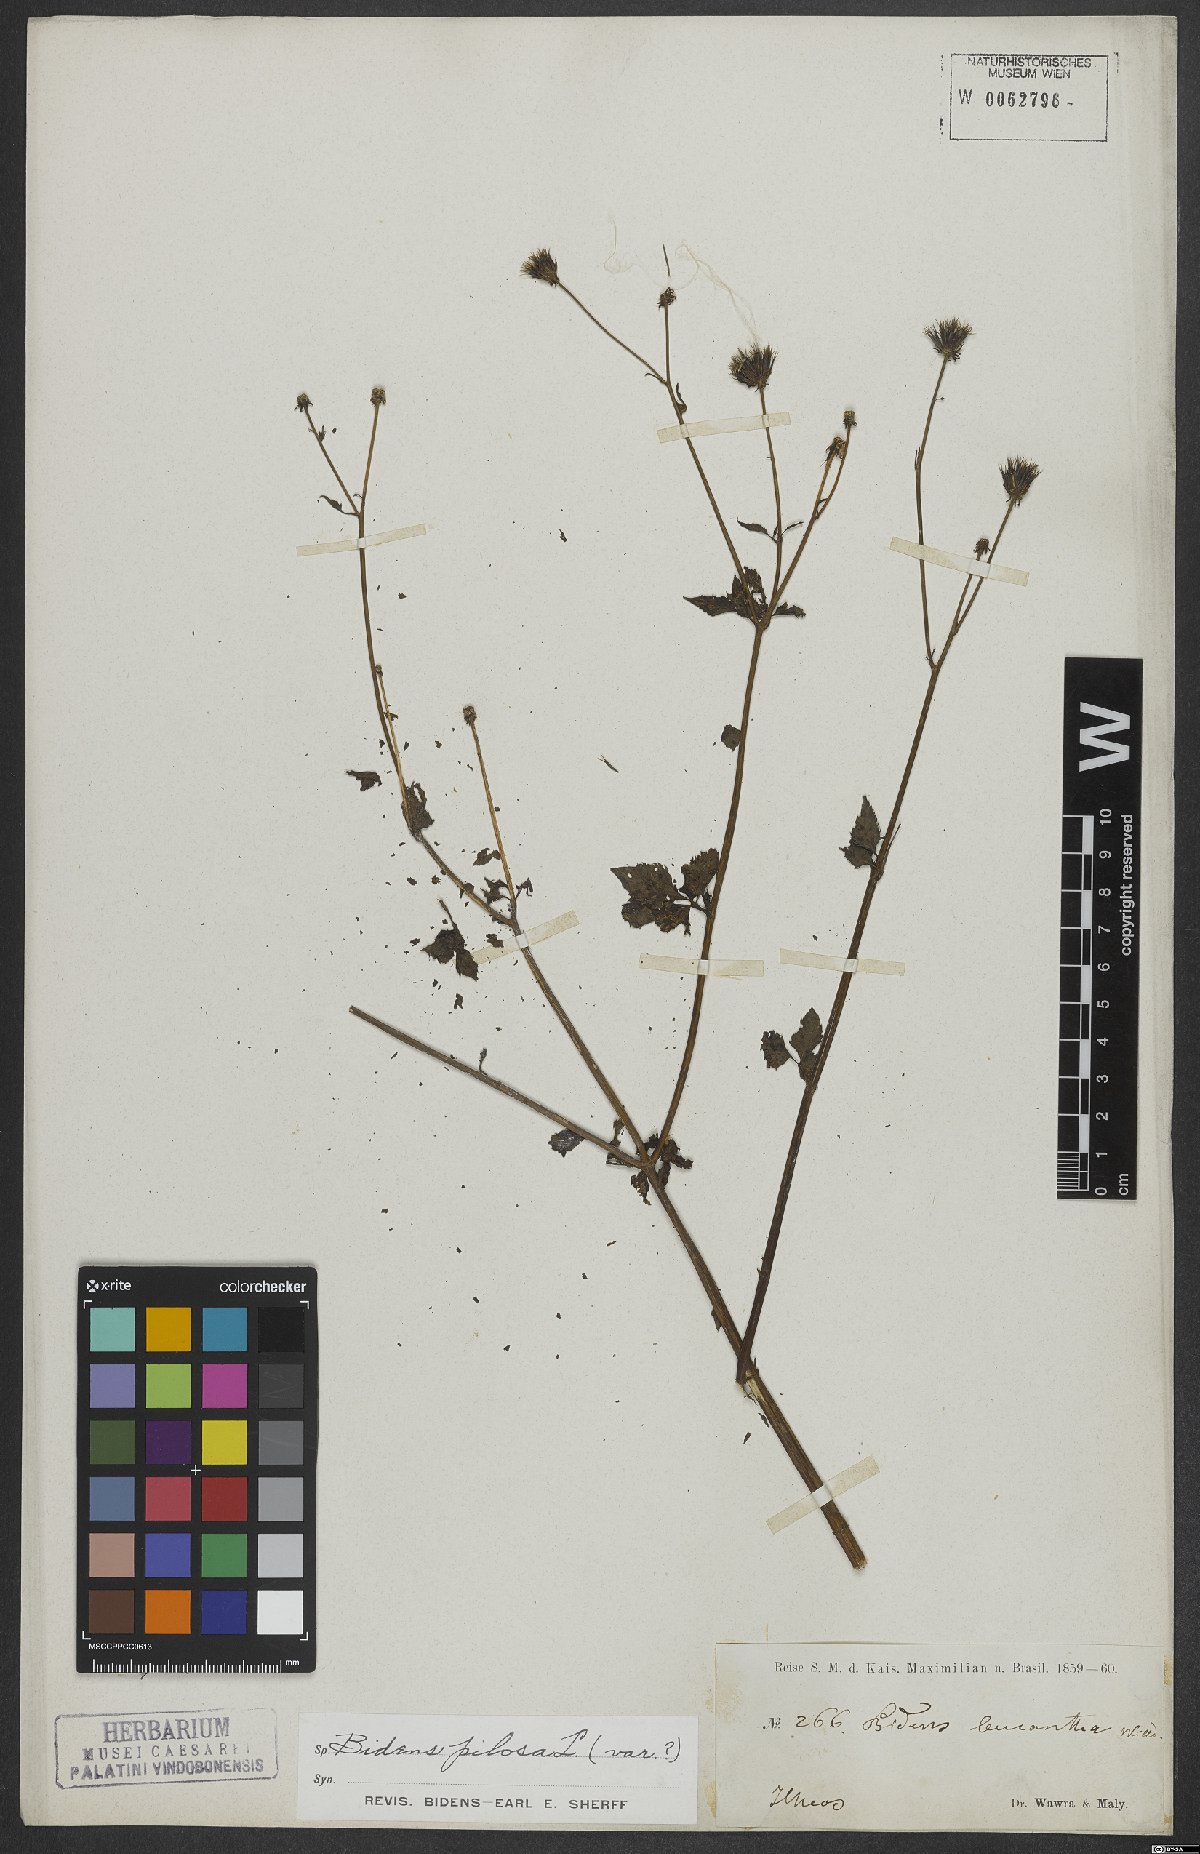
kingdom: Plantae
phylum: Tracheophyta
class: Magnoliopsida
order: Asterales
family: Asteraceae
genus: Bidens
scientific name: Bidens pilosa
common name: Black-jack
